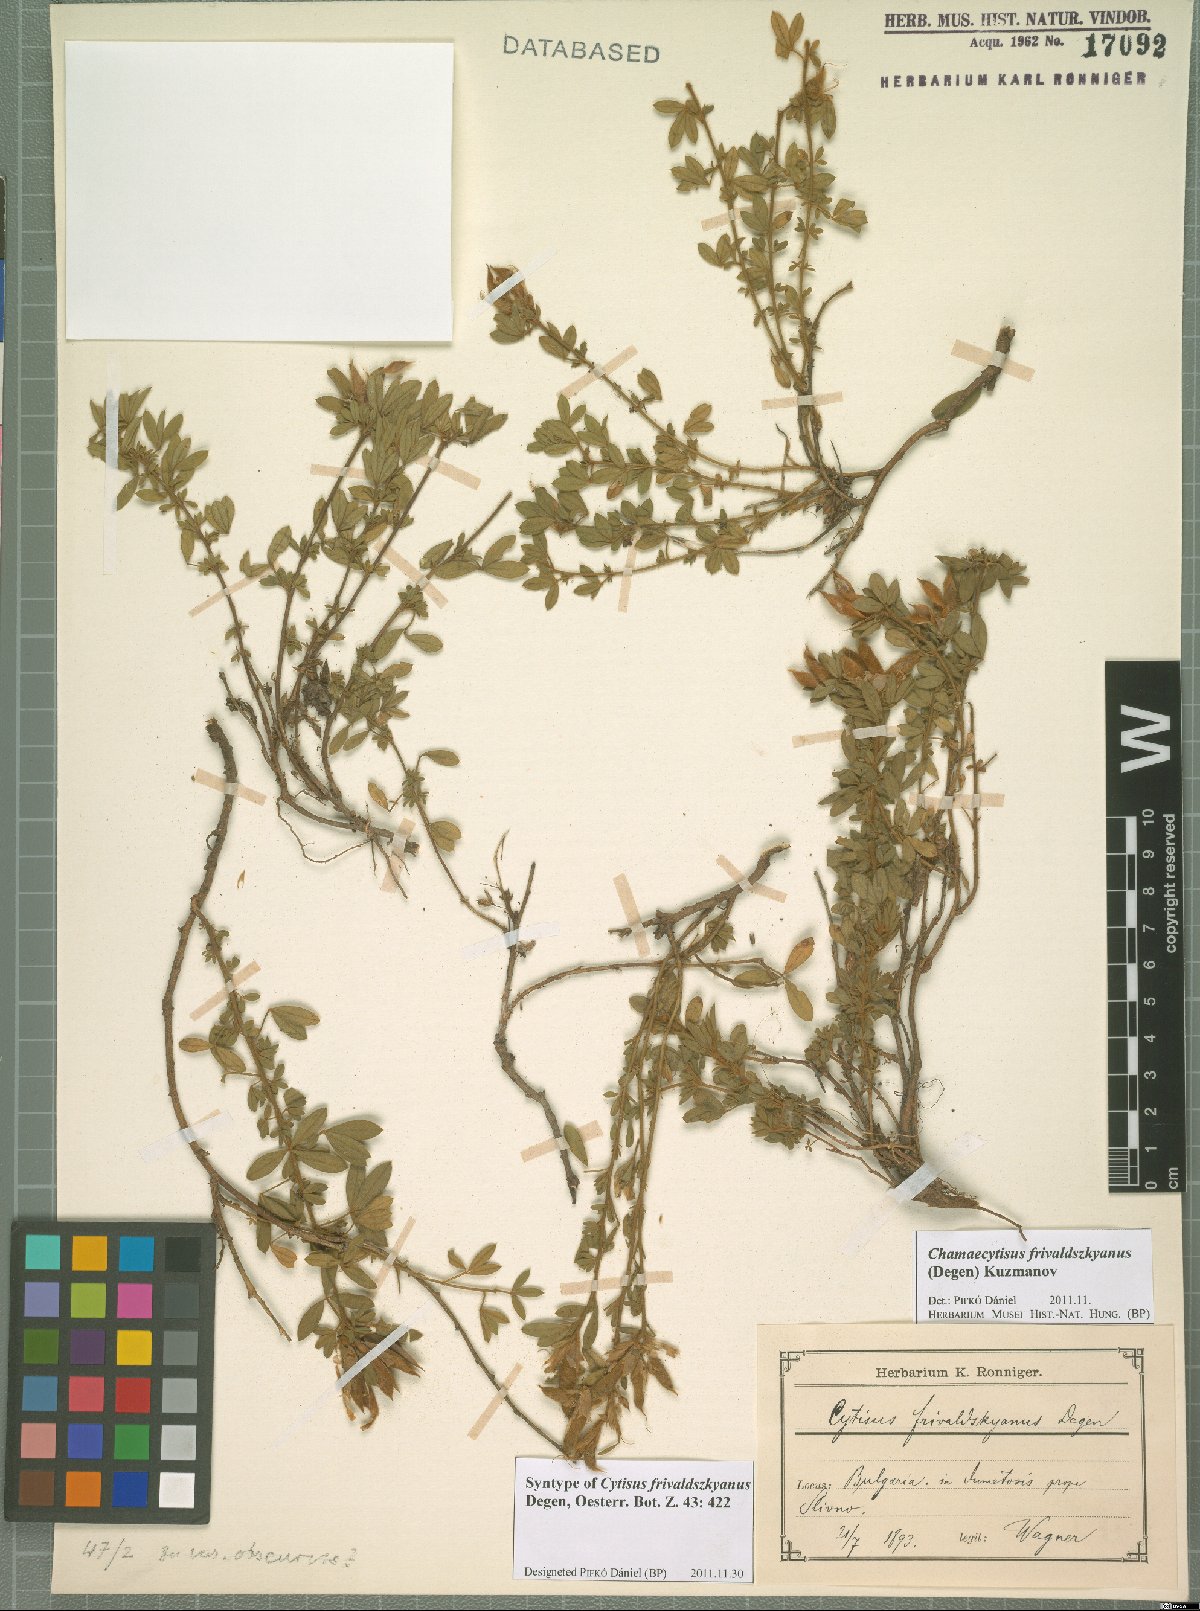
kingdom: Plantae
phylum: Tracheophyta
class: Magnoliopsida
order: Fabales
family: Fabaceae
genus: Chamaecytisus
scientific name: Chamaecytisus frivaldszkyanus
